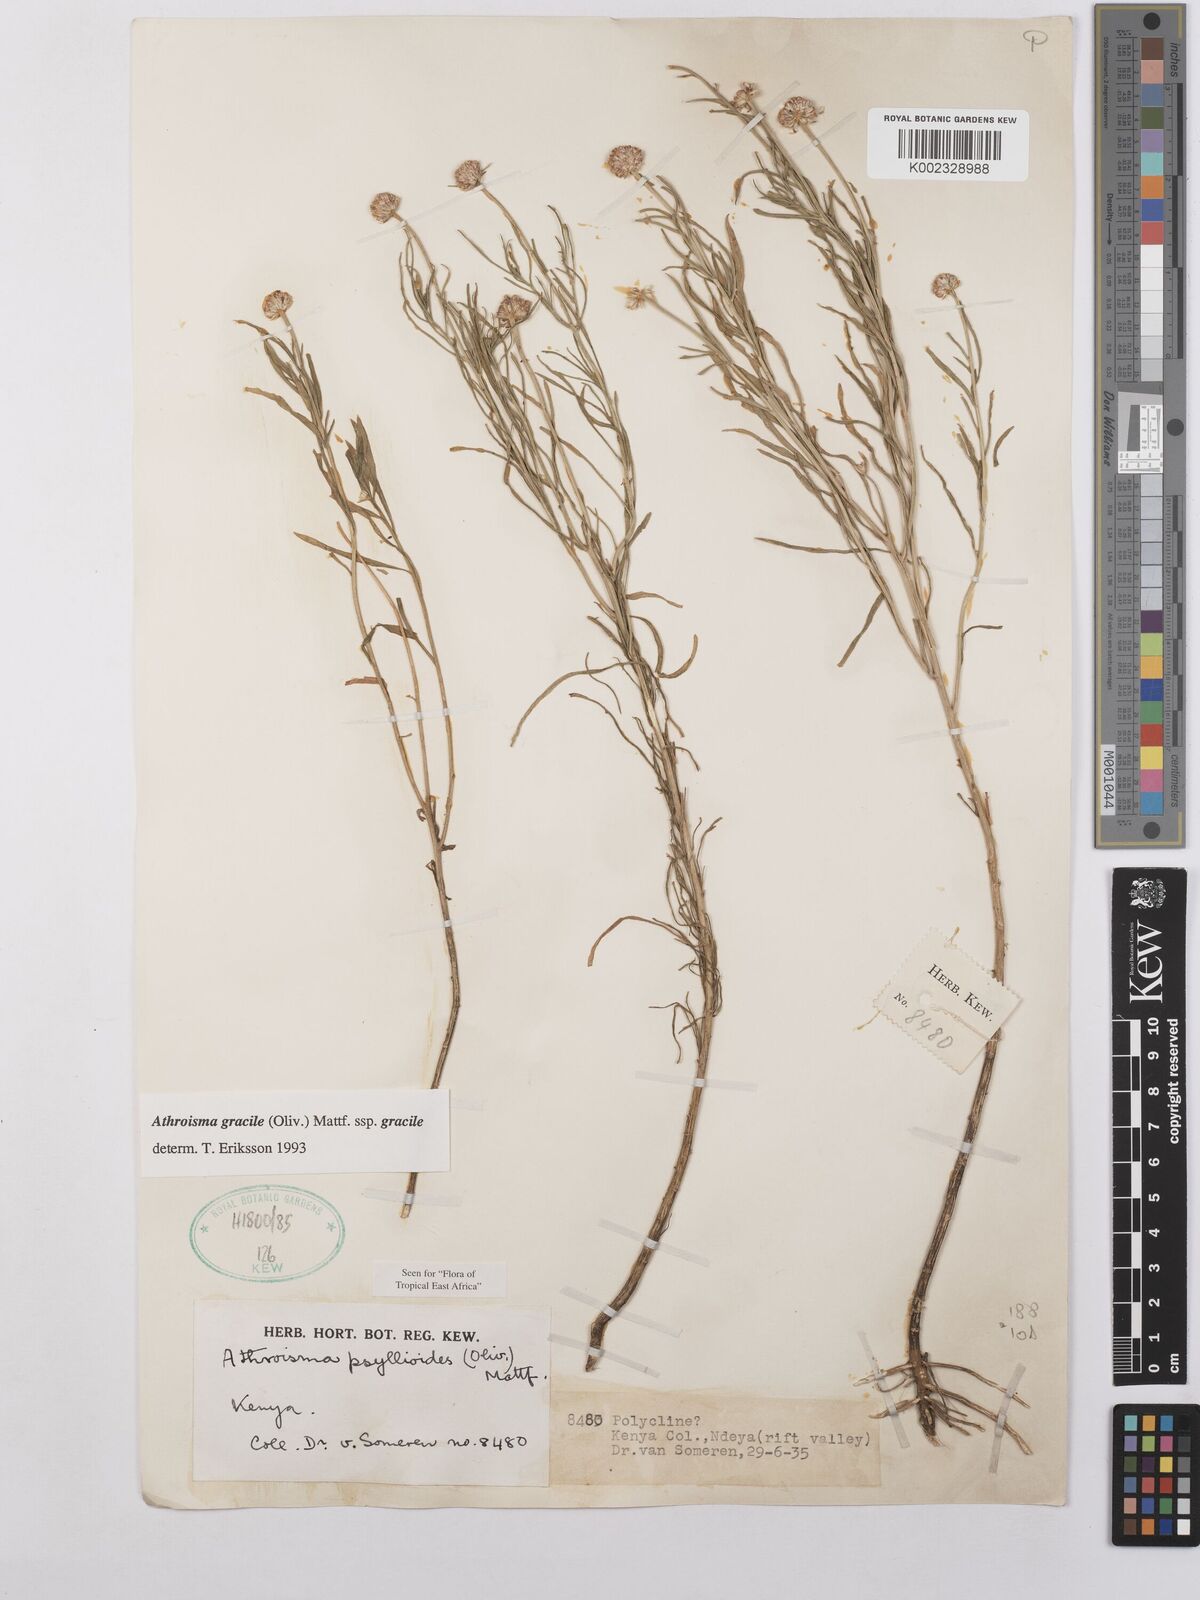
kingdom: Plantae
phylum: Tracheophyta
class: Magnoliopsida
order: Asterales
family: Asteraceae
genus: Athroisma
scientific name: Athroisma gracile
